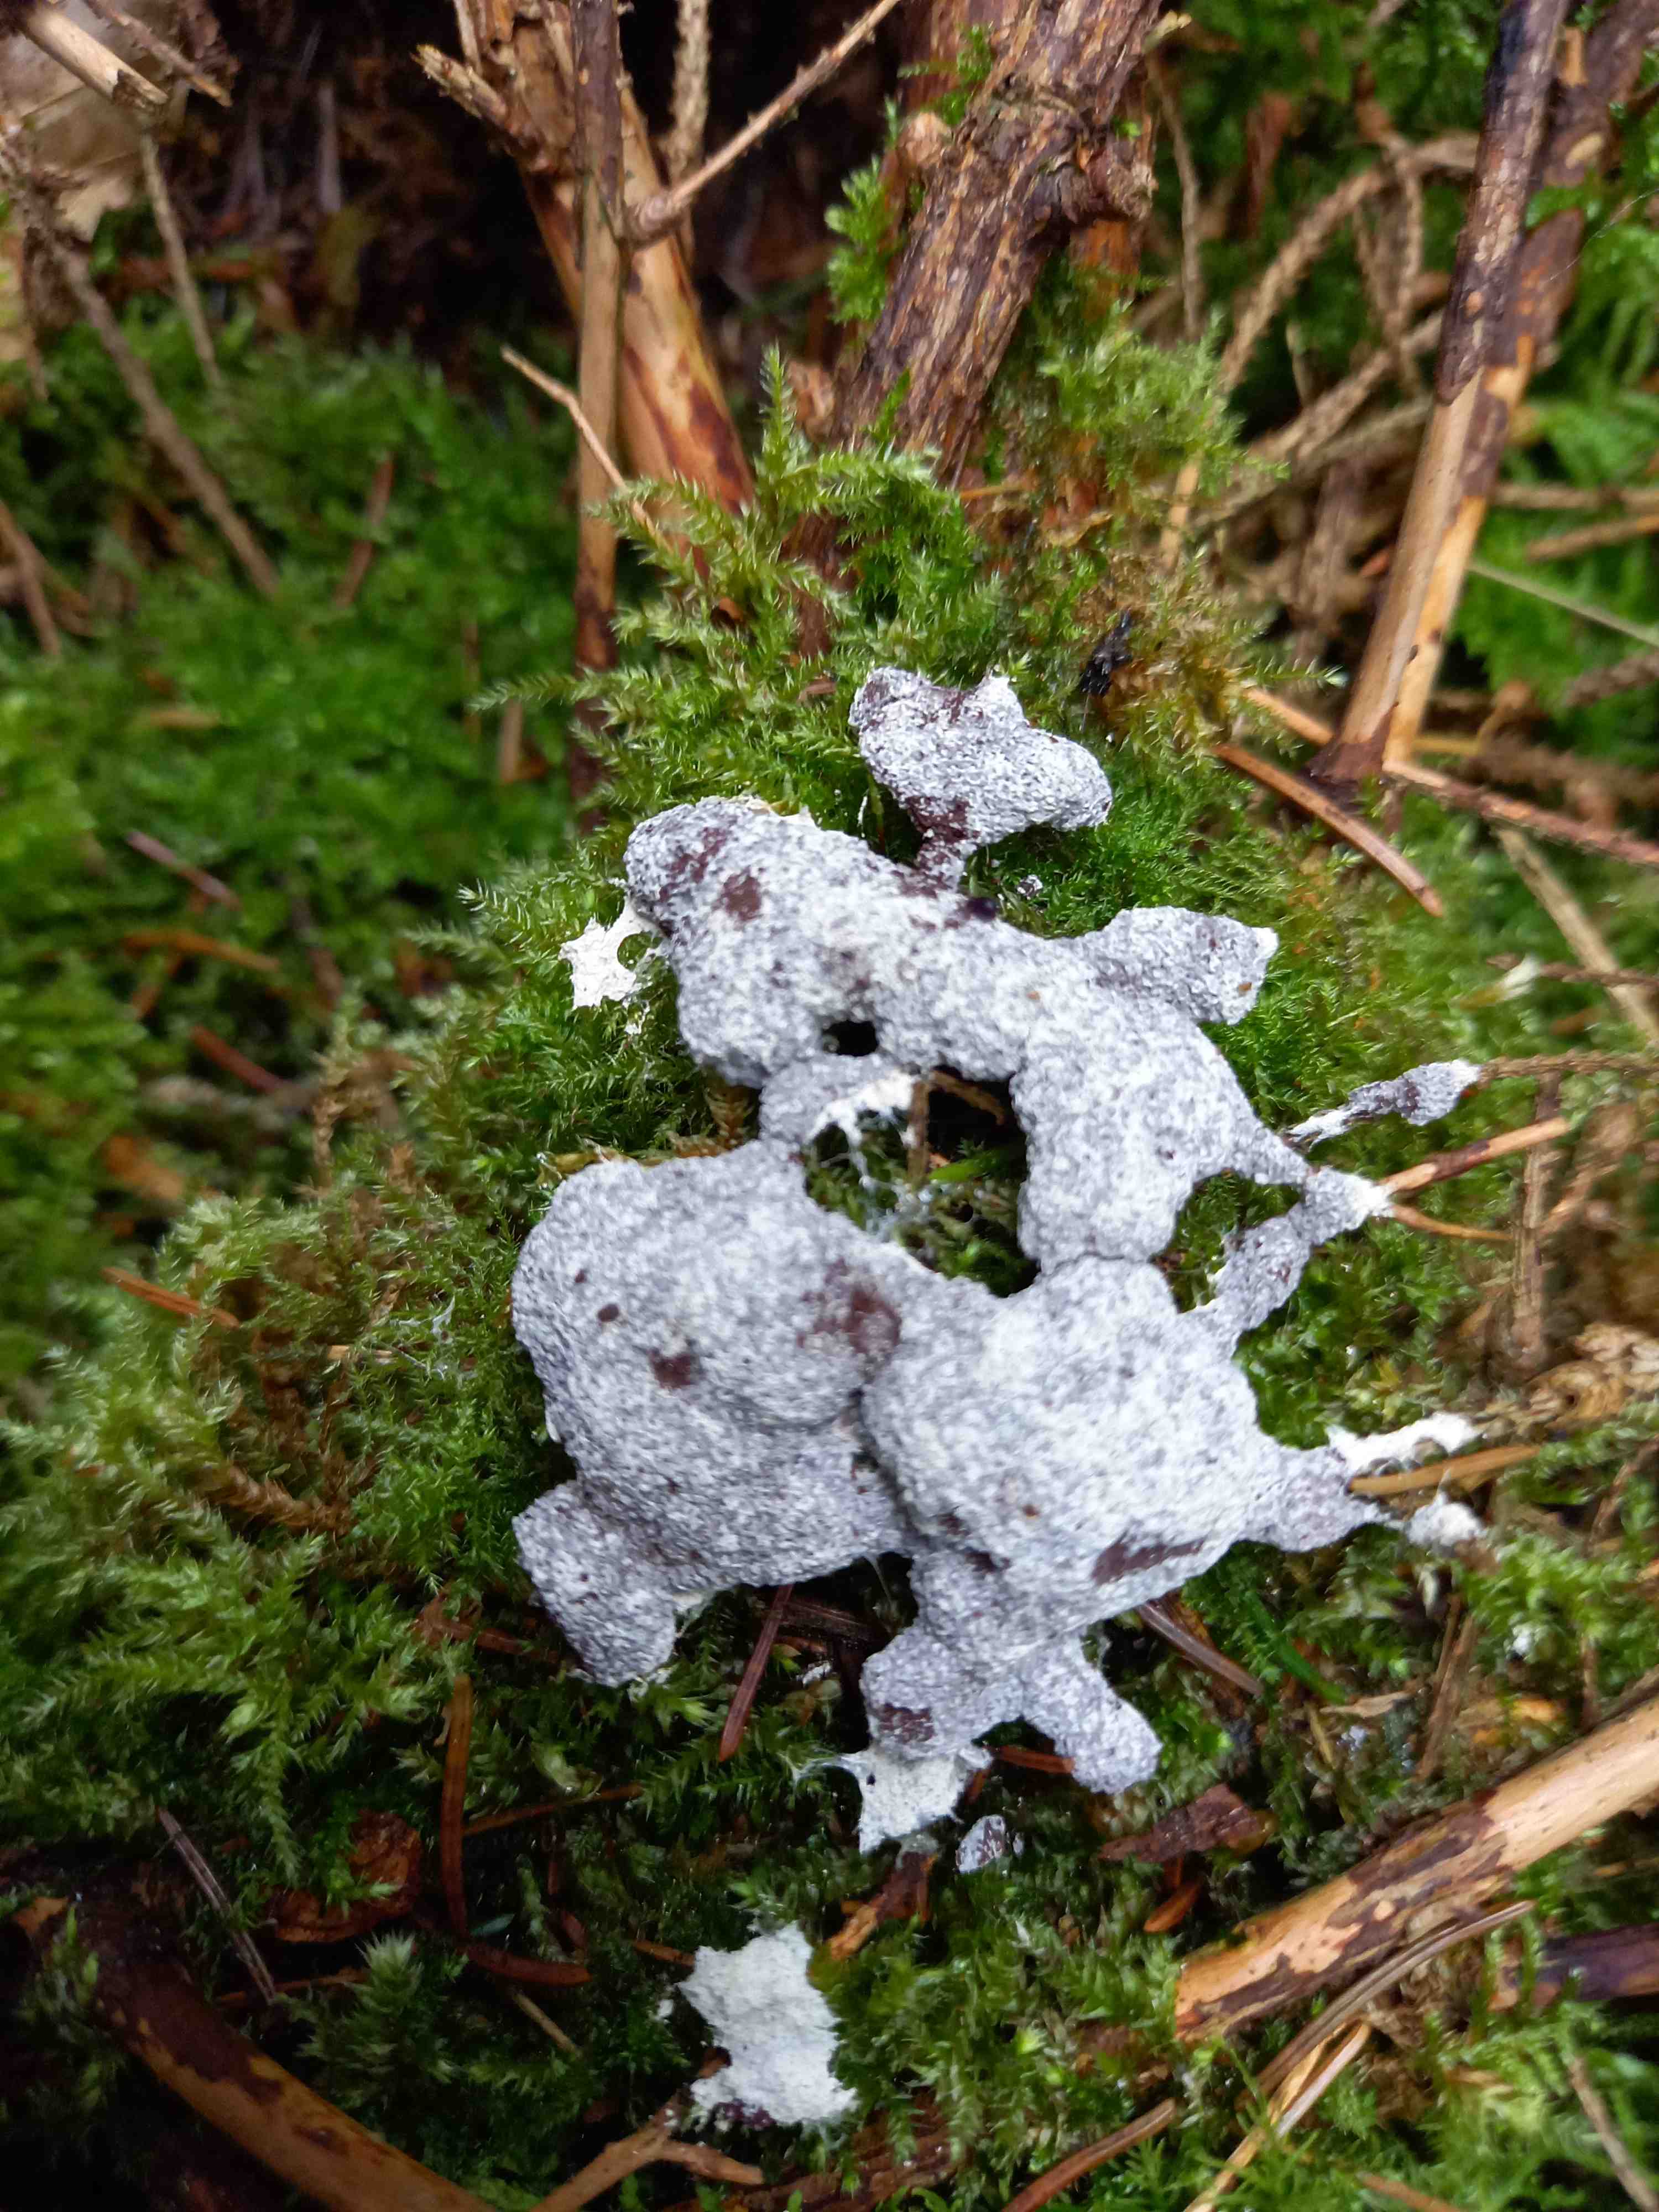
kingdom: Protozoa
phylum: Mycetozoa
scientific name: Mycetozoa
